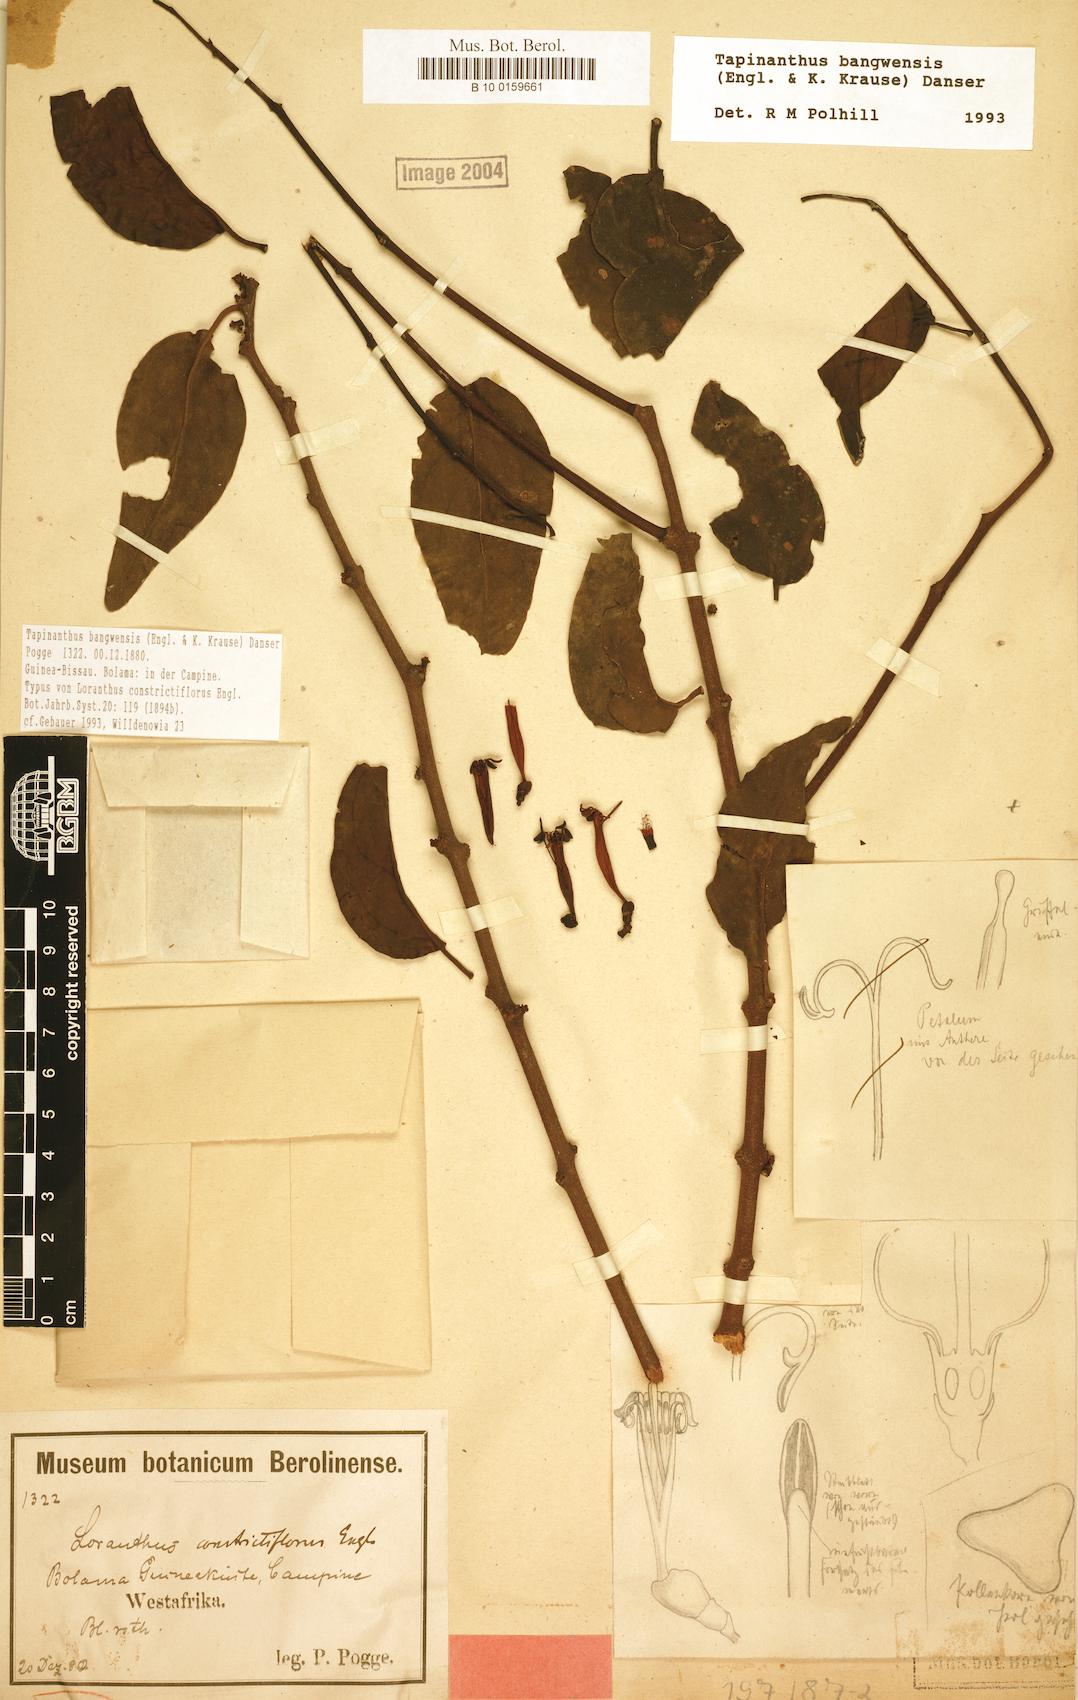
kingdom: Plantae
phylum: Tracheophyta
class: Magnoliopsida
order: Santalales
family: Loranthaceae
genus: Tapinanthus
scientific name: Tapinanthus bangwensis
